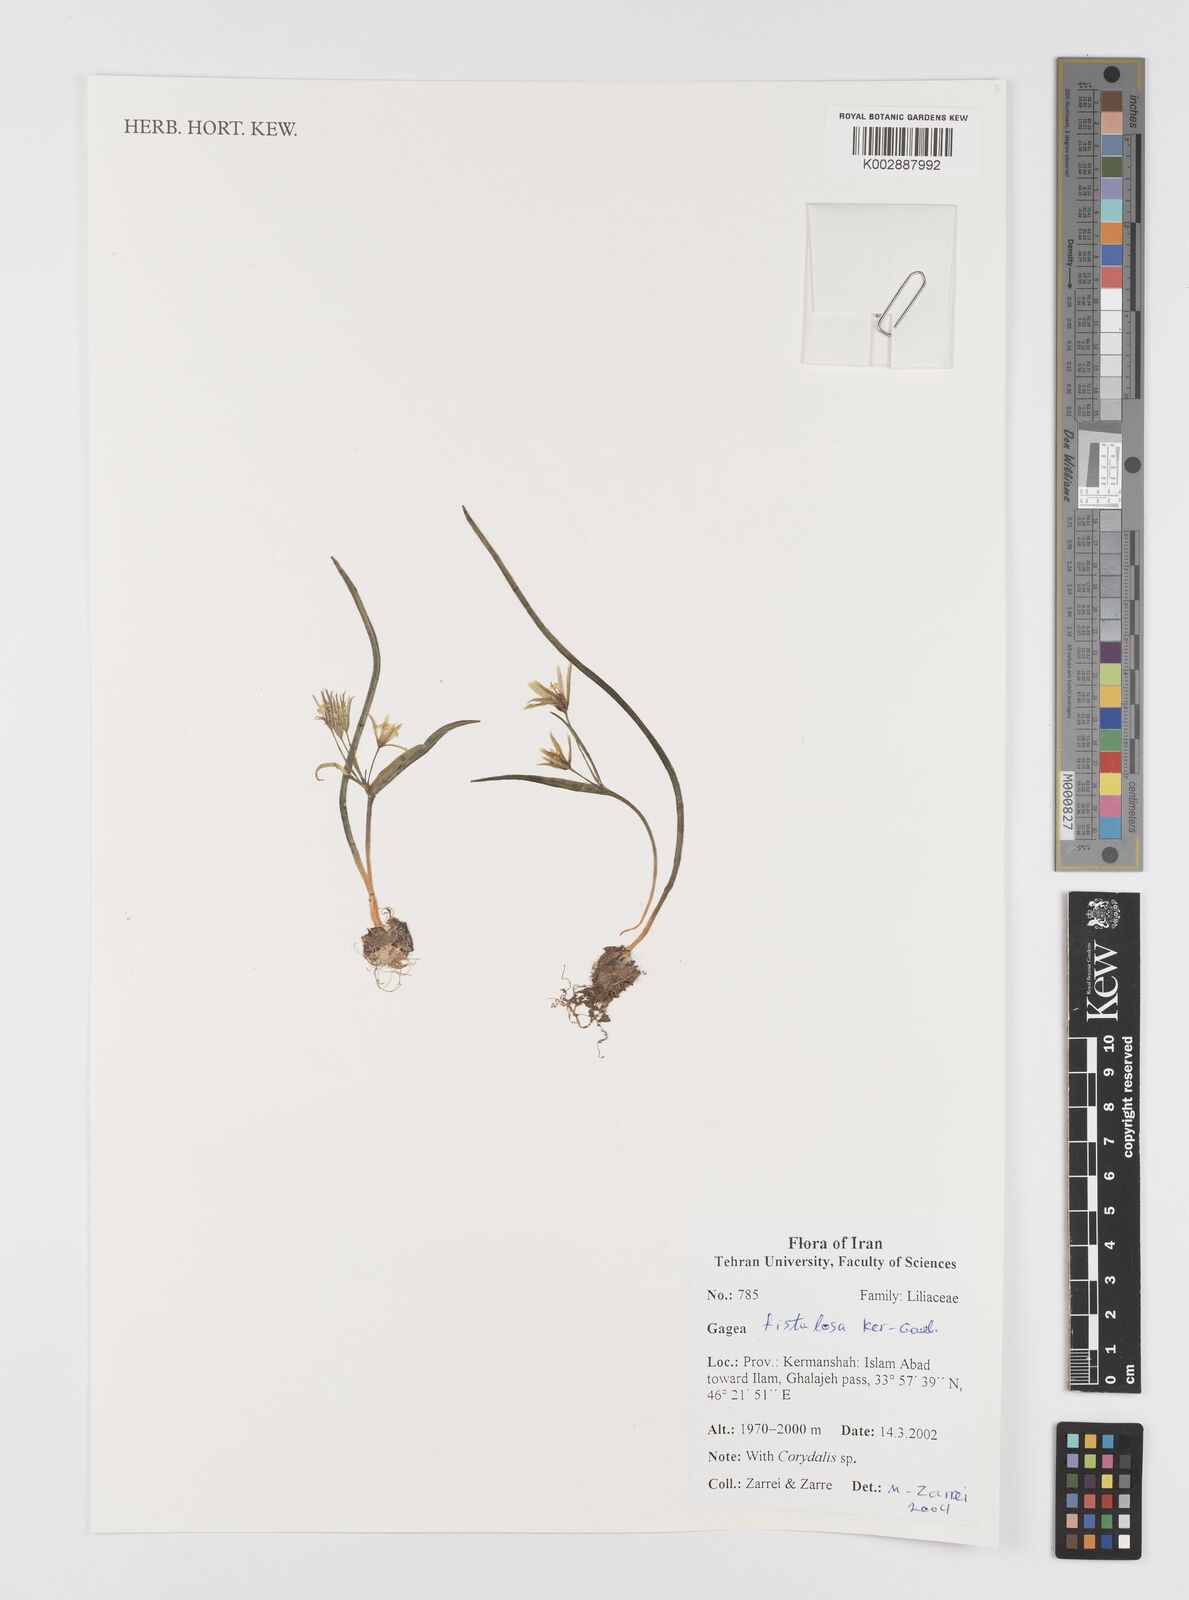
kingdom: Plantae
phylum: Tracheophyta
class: Liliopsida
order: Liliales
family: Liliaceae
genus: Gagea
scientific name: Gagea bohemica
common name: Early star-of-bethlehem
